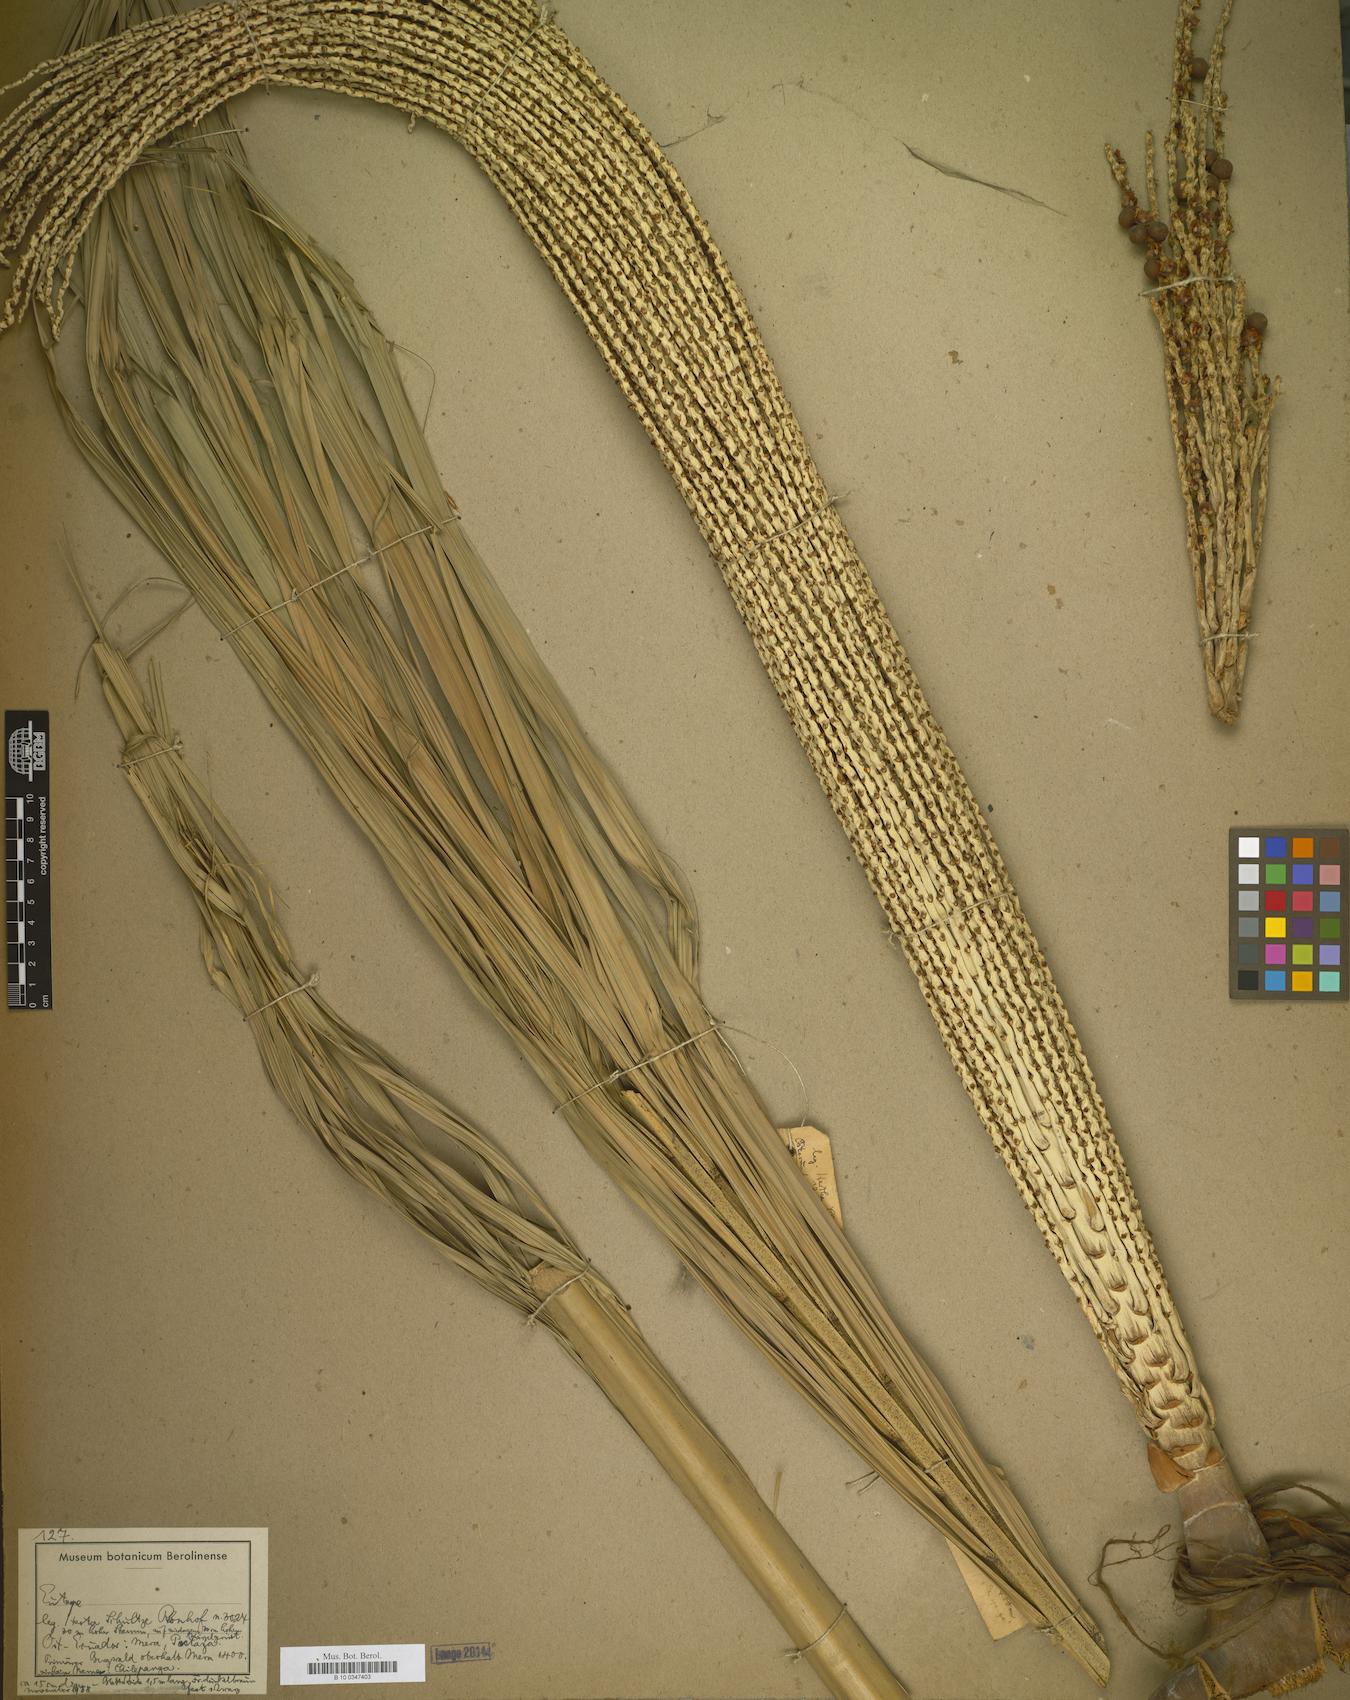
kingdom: Plantae
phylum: Tracheophyta
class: Liliopsida
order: Arecales
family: Arecaceae
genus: Euterpe
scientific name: Euterpe
